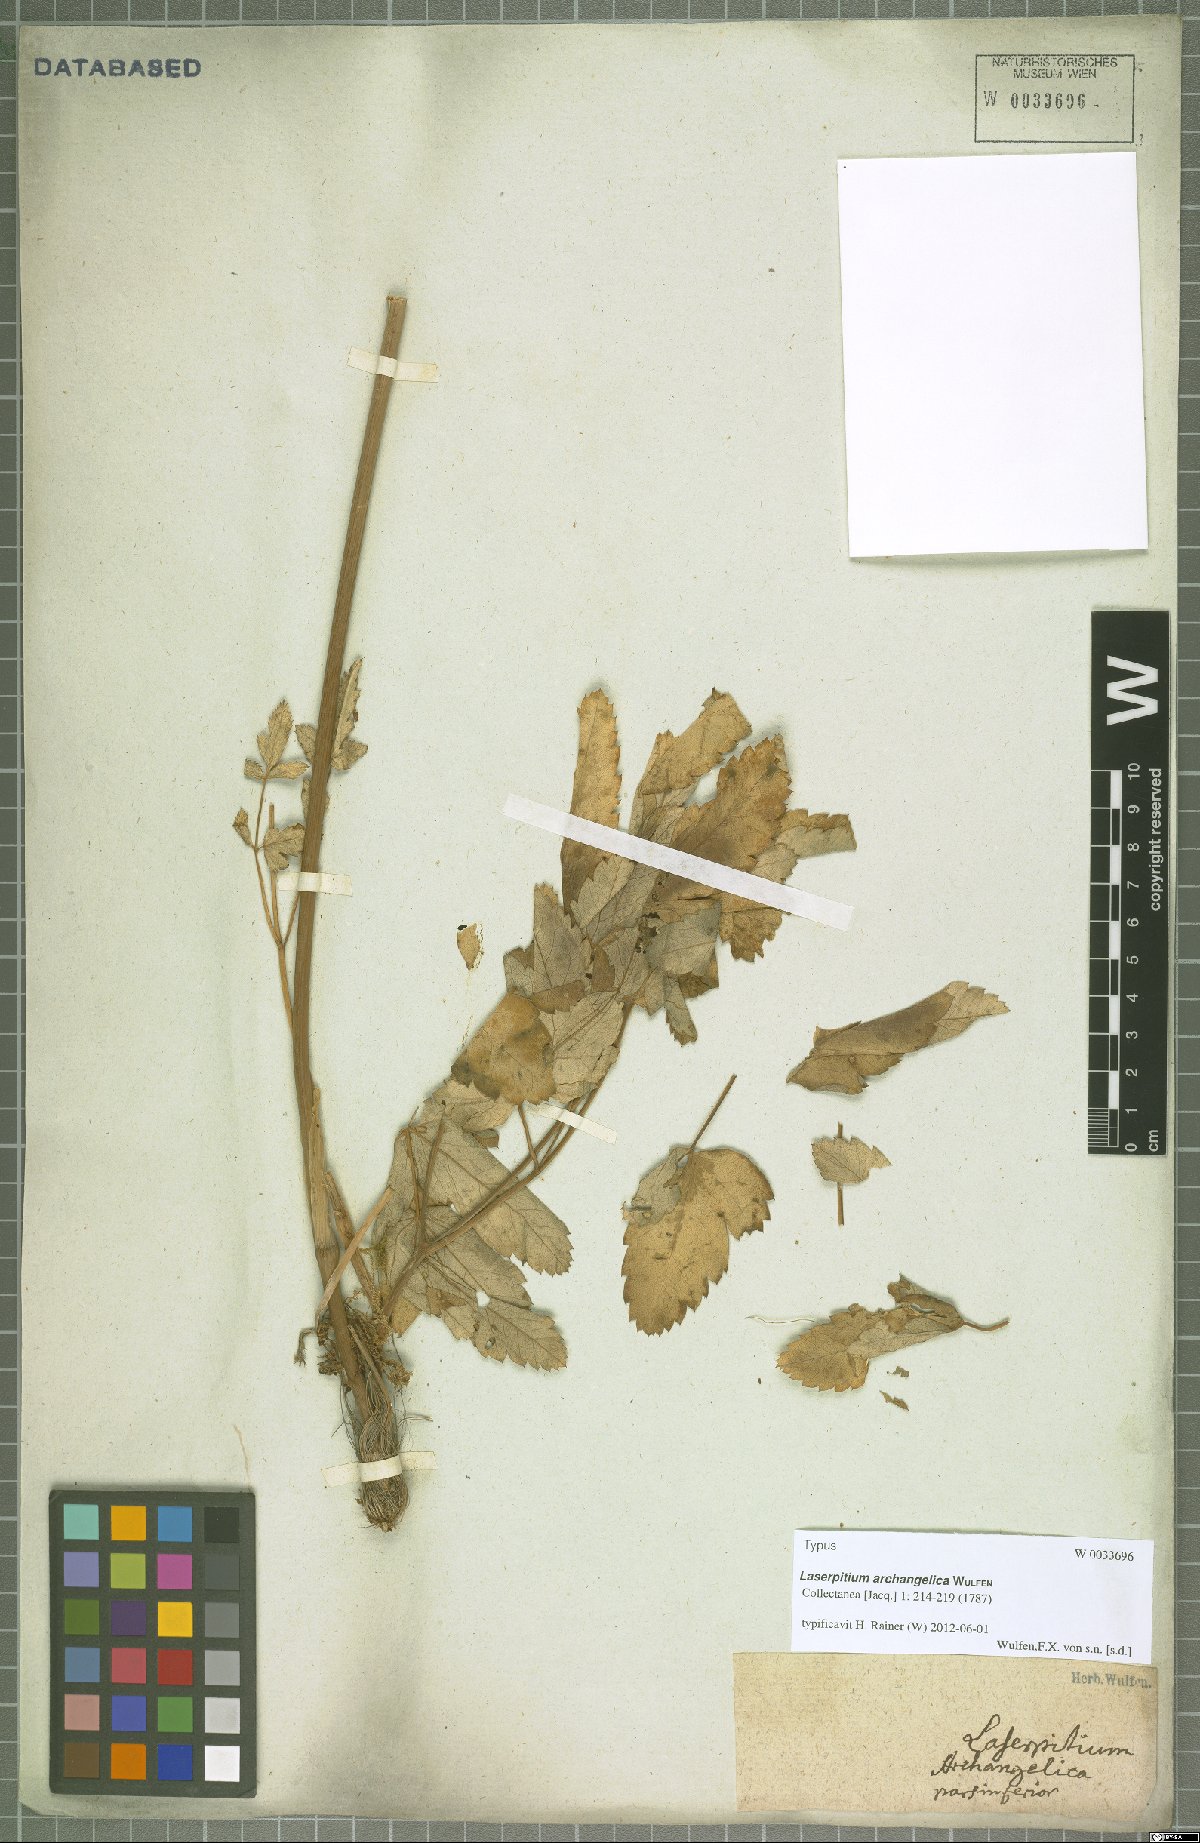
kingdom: Plantae
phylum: Tracheophyta
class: Magnoliopsida
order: Apiales
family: Apiaceae
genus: Laser
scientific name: Laser archangelica
